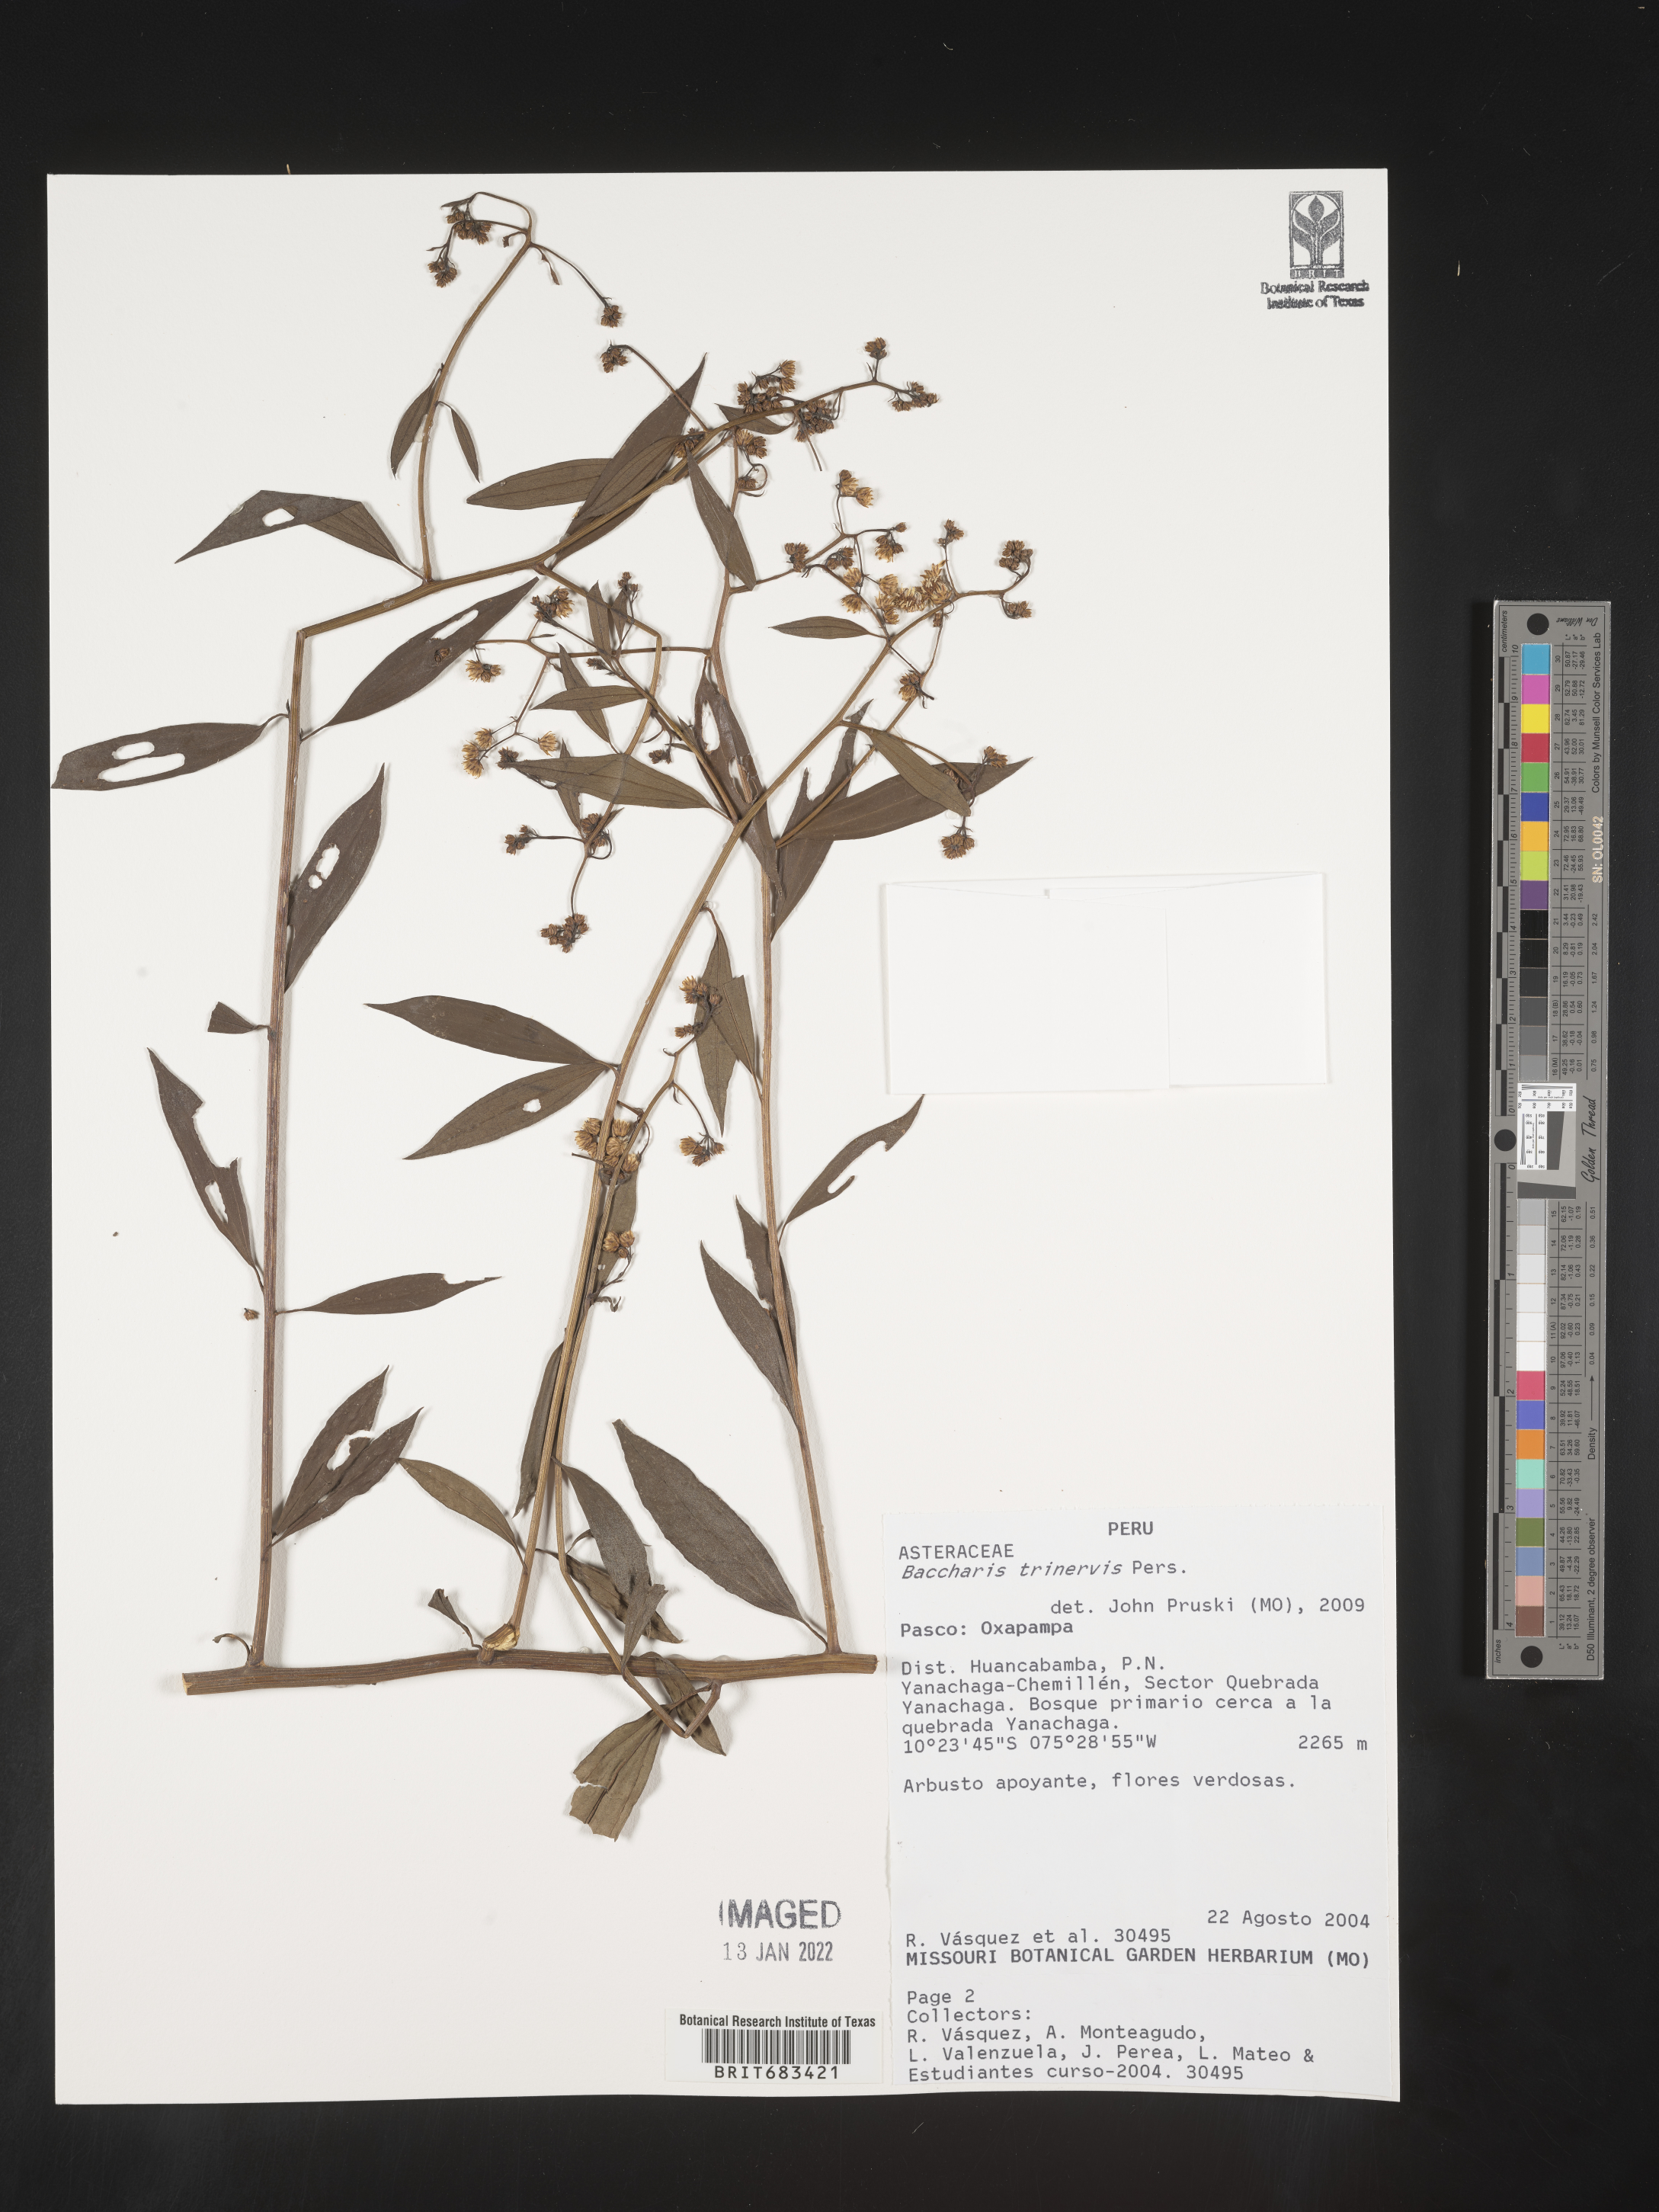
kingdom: Plantae
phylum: Tracheophyta
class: Magnoliopsida
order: Asterales
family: Asteraceae
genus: Baccharis
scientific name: Baccharis trinervis
